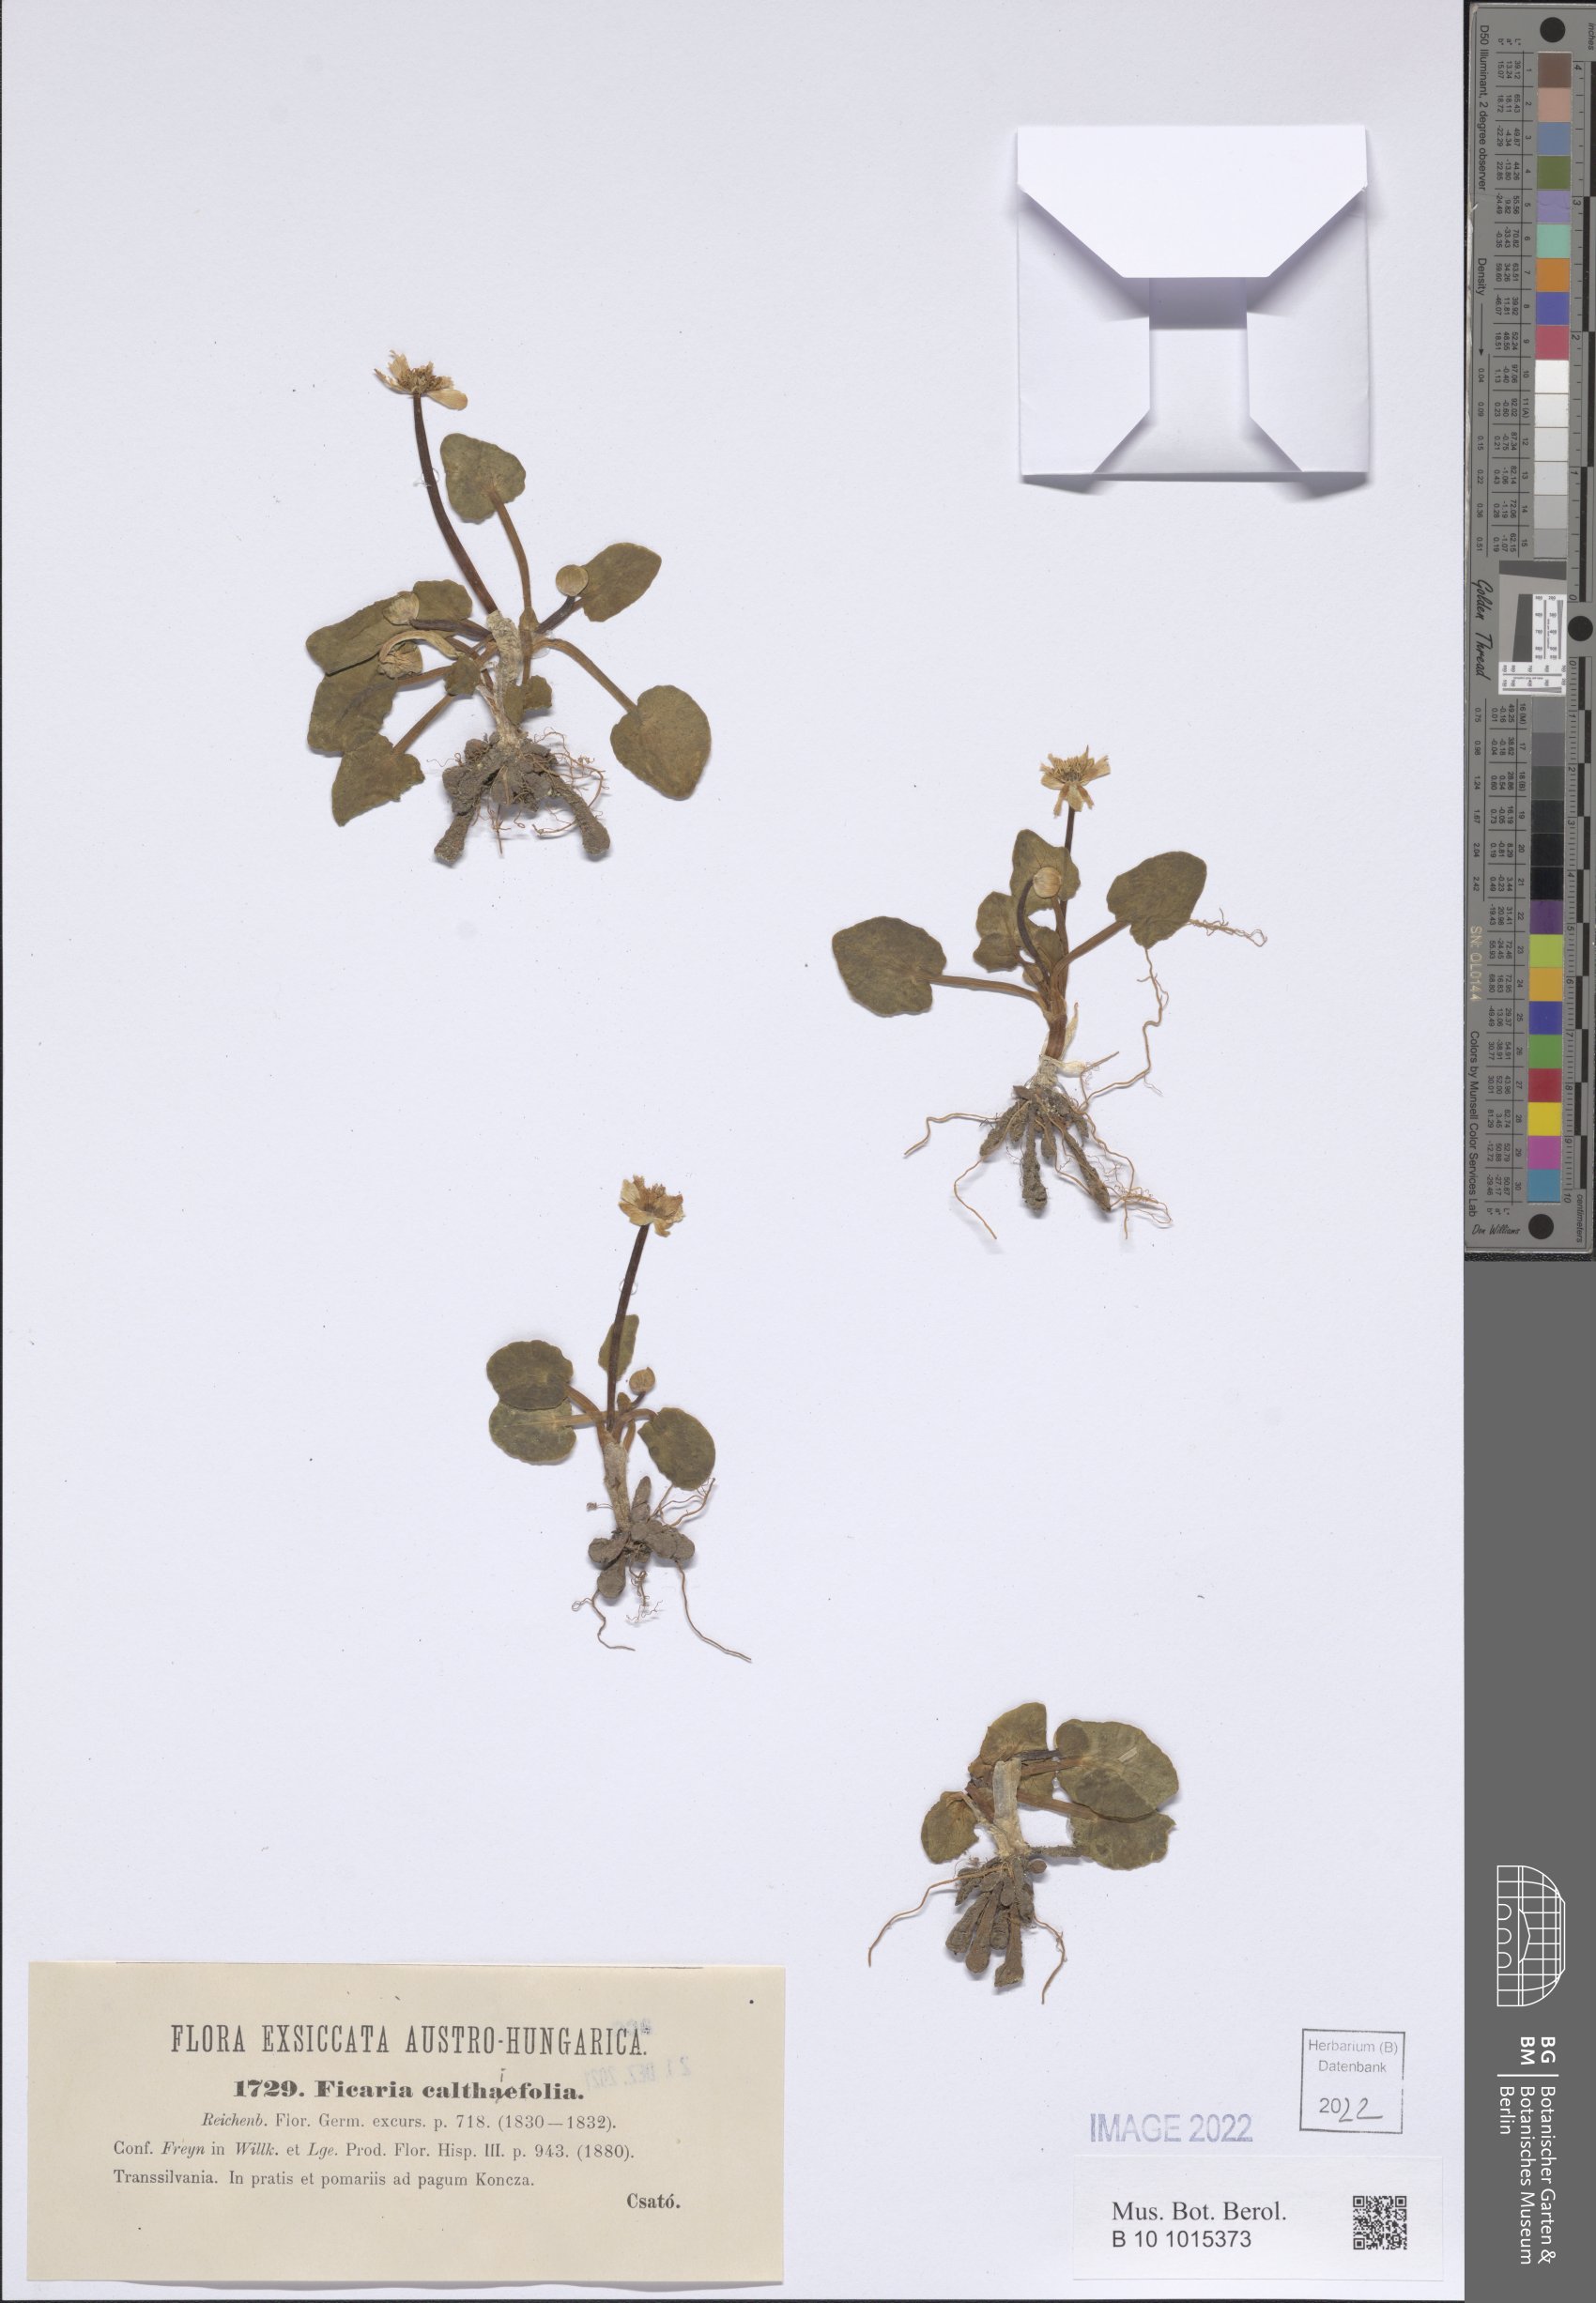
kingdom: Plantae
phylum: Tracheophyta
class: Magnoliopsida
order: Ranunculales
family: Ranunculaceae
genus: Ficaria
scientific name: Ficaria calthifolia
